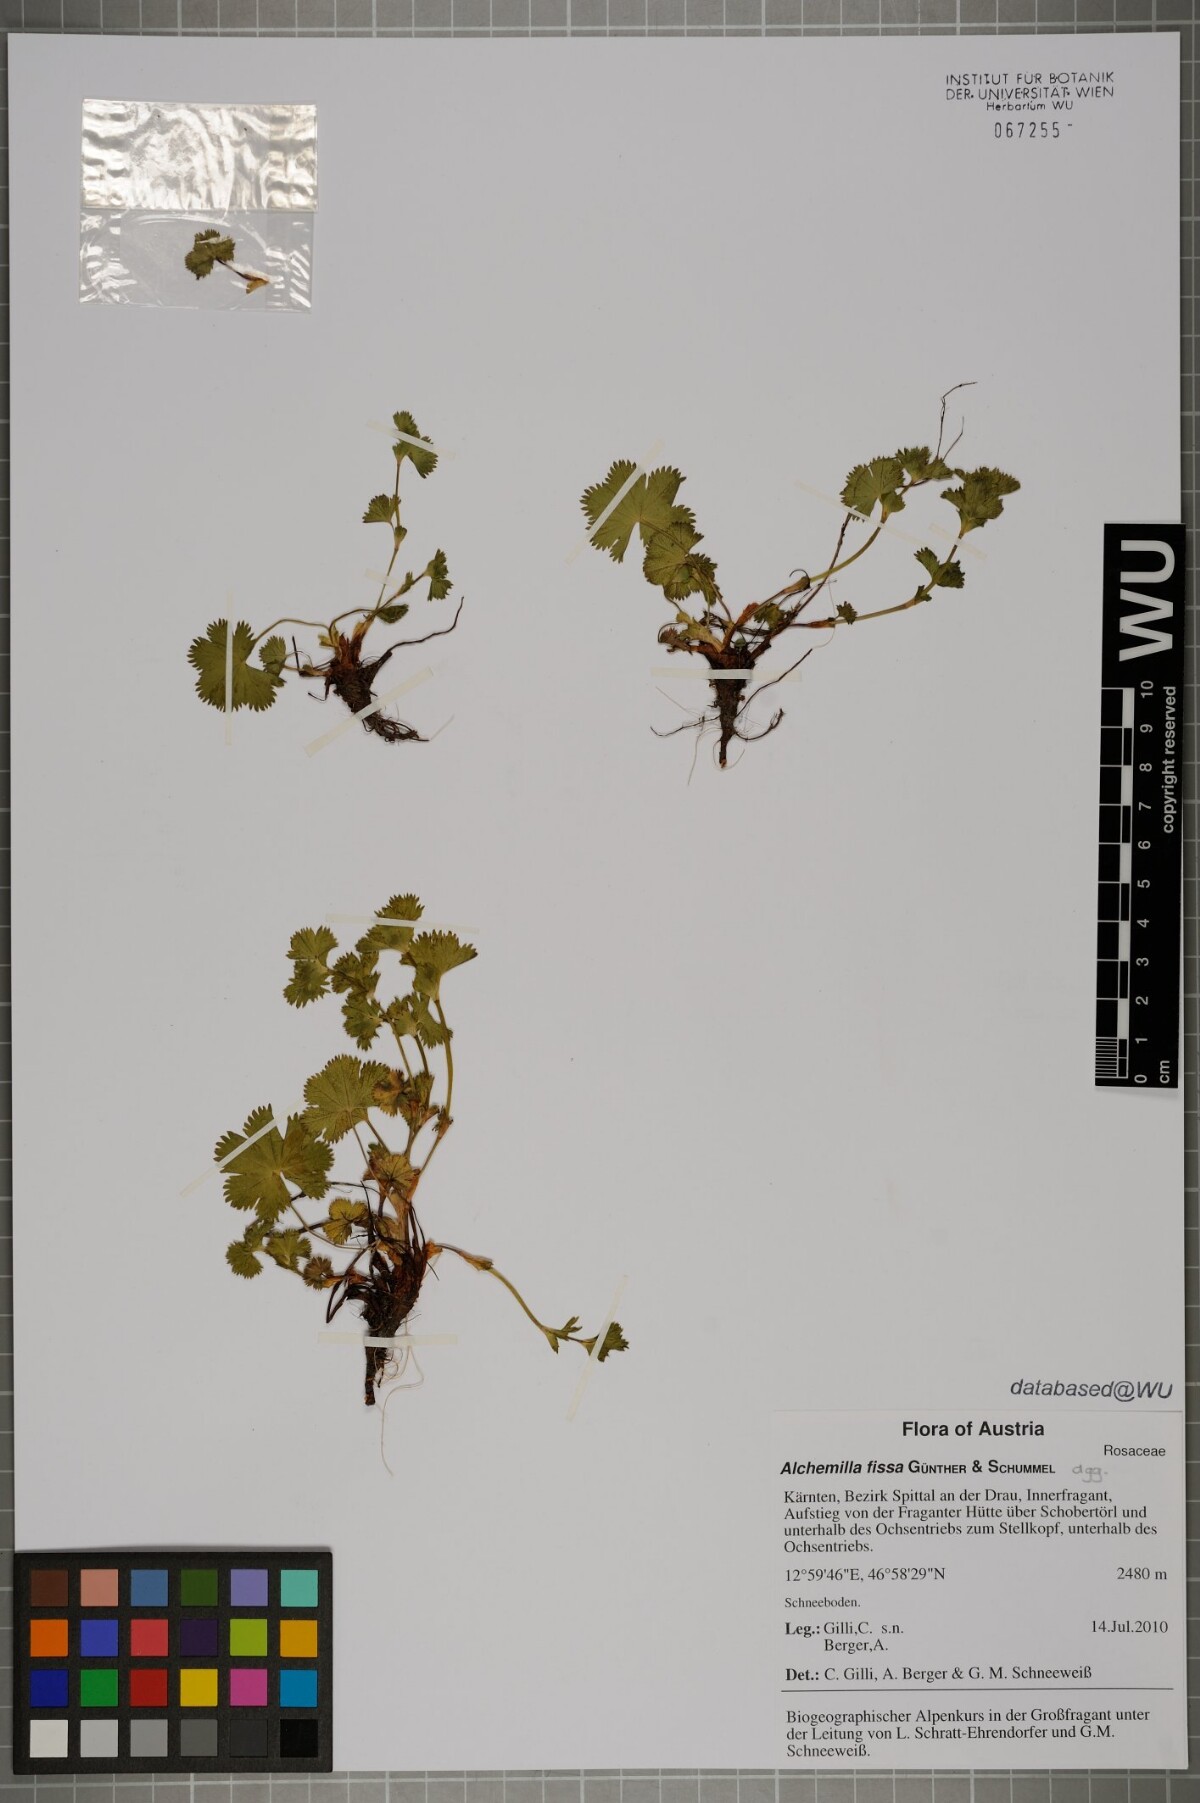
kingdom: Plantae
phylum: Tracheophyta
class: Magnoliopsida
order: Rosales
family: Rosaceae
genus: Alchemilla
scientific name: Alchemilla fissa
